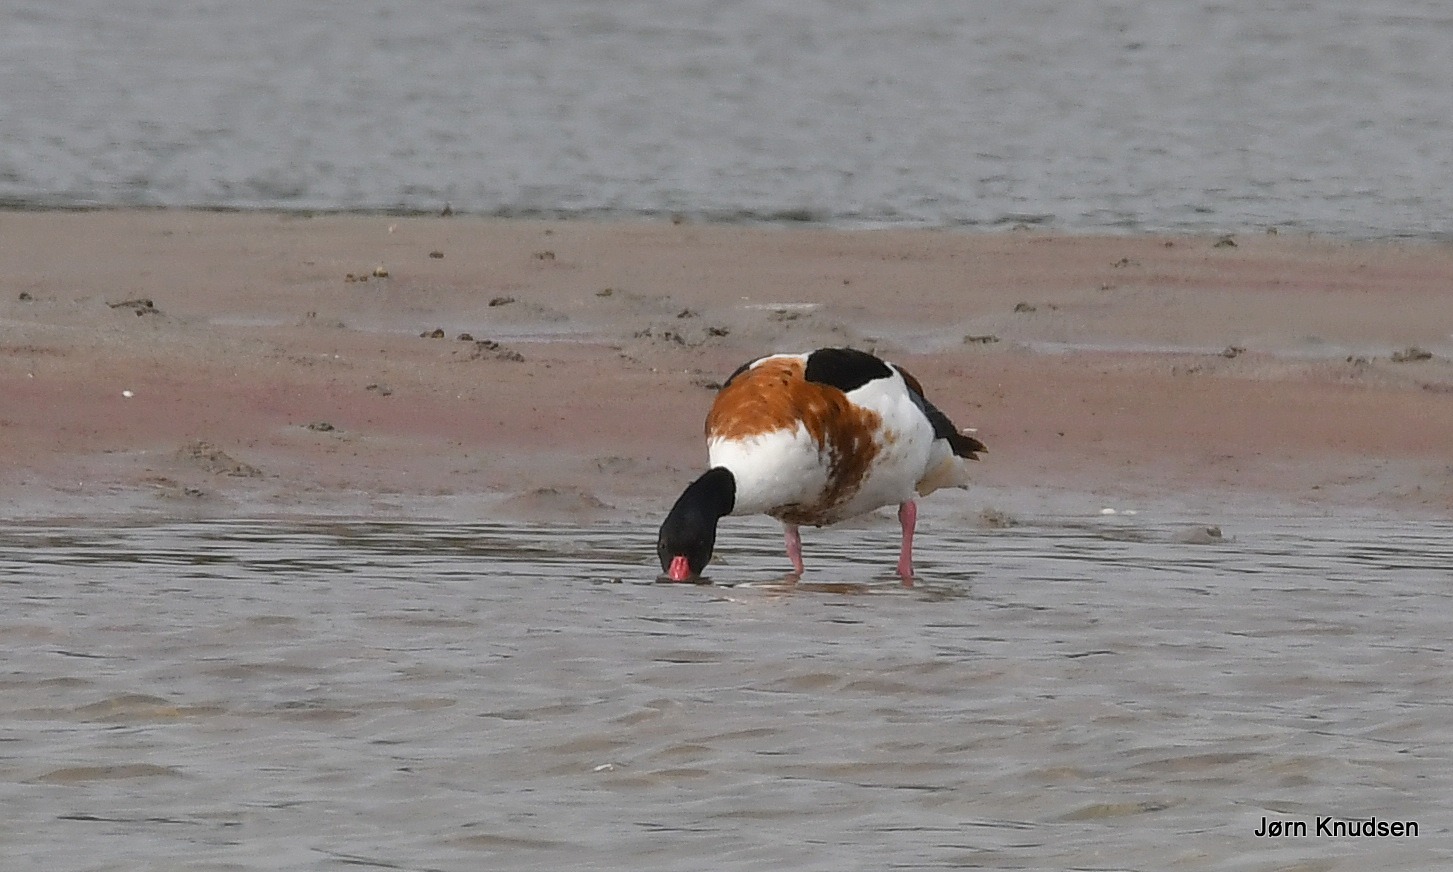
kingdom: Animalia
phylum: Chordata
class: Aves
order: Anseriformes
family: Anatidae
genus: Tadorna
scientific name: Tadorna tadorna
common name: Gravand
